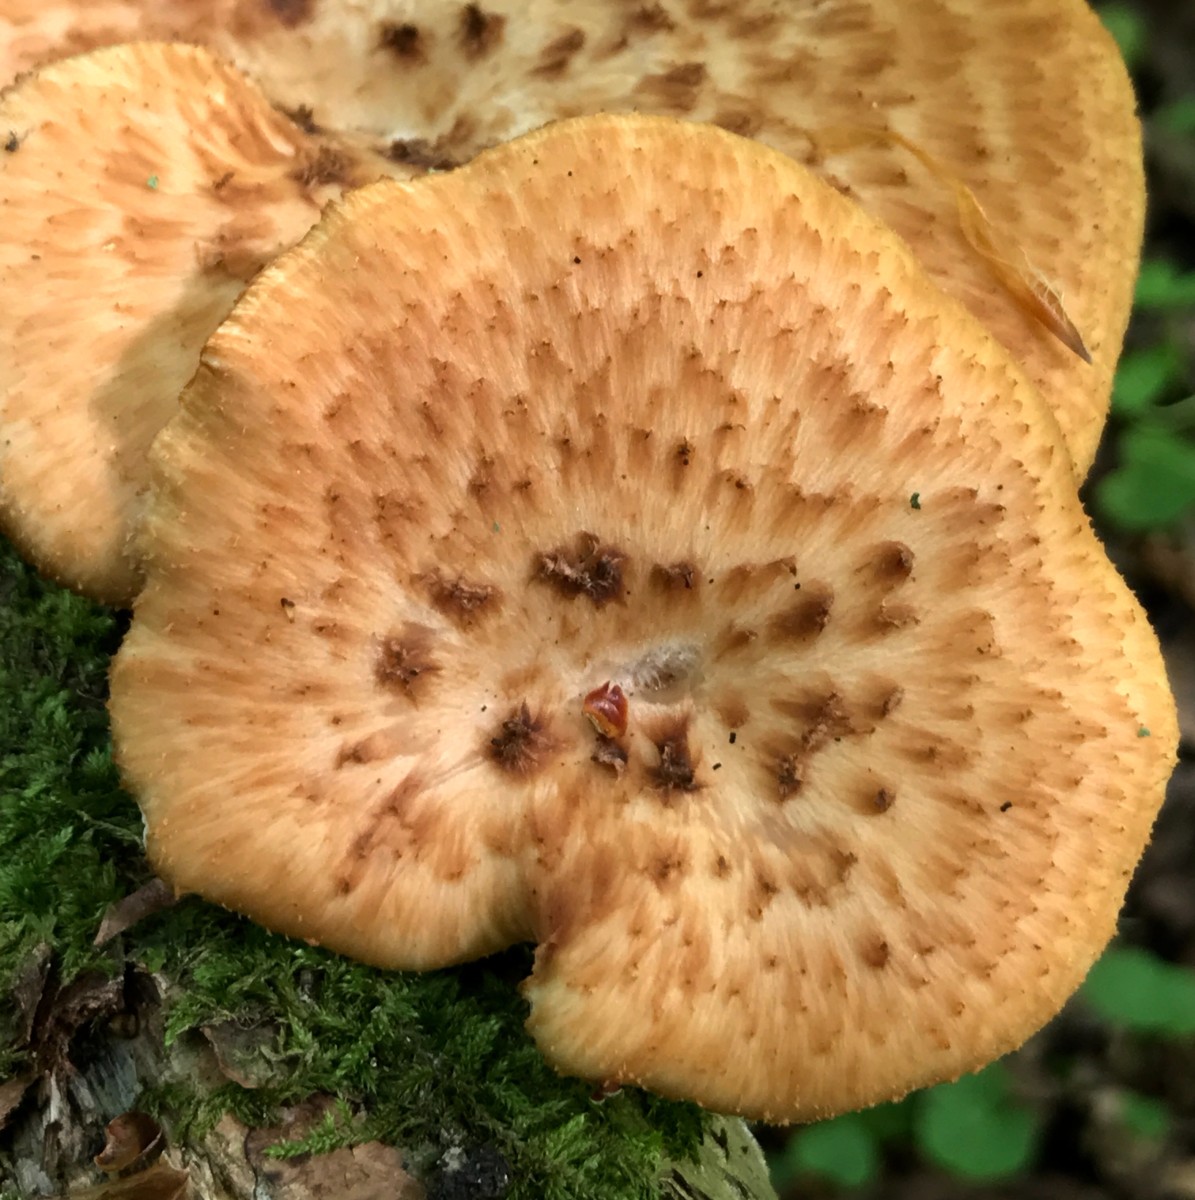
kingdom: Fungi
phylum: Basidiomycota
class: Agaricomycetes
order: Polyporales
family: Polyporaceae
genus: Cerioporus
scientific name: Cerioporus squamosus
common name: skællet stilkporesvamp
